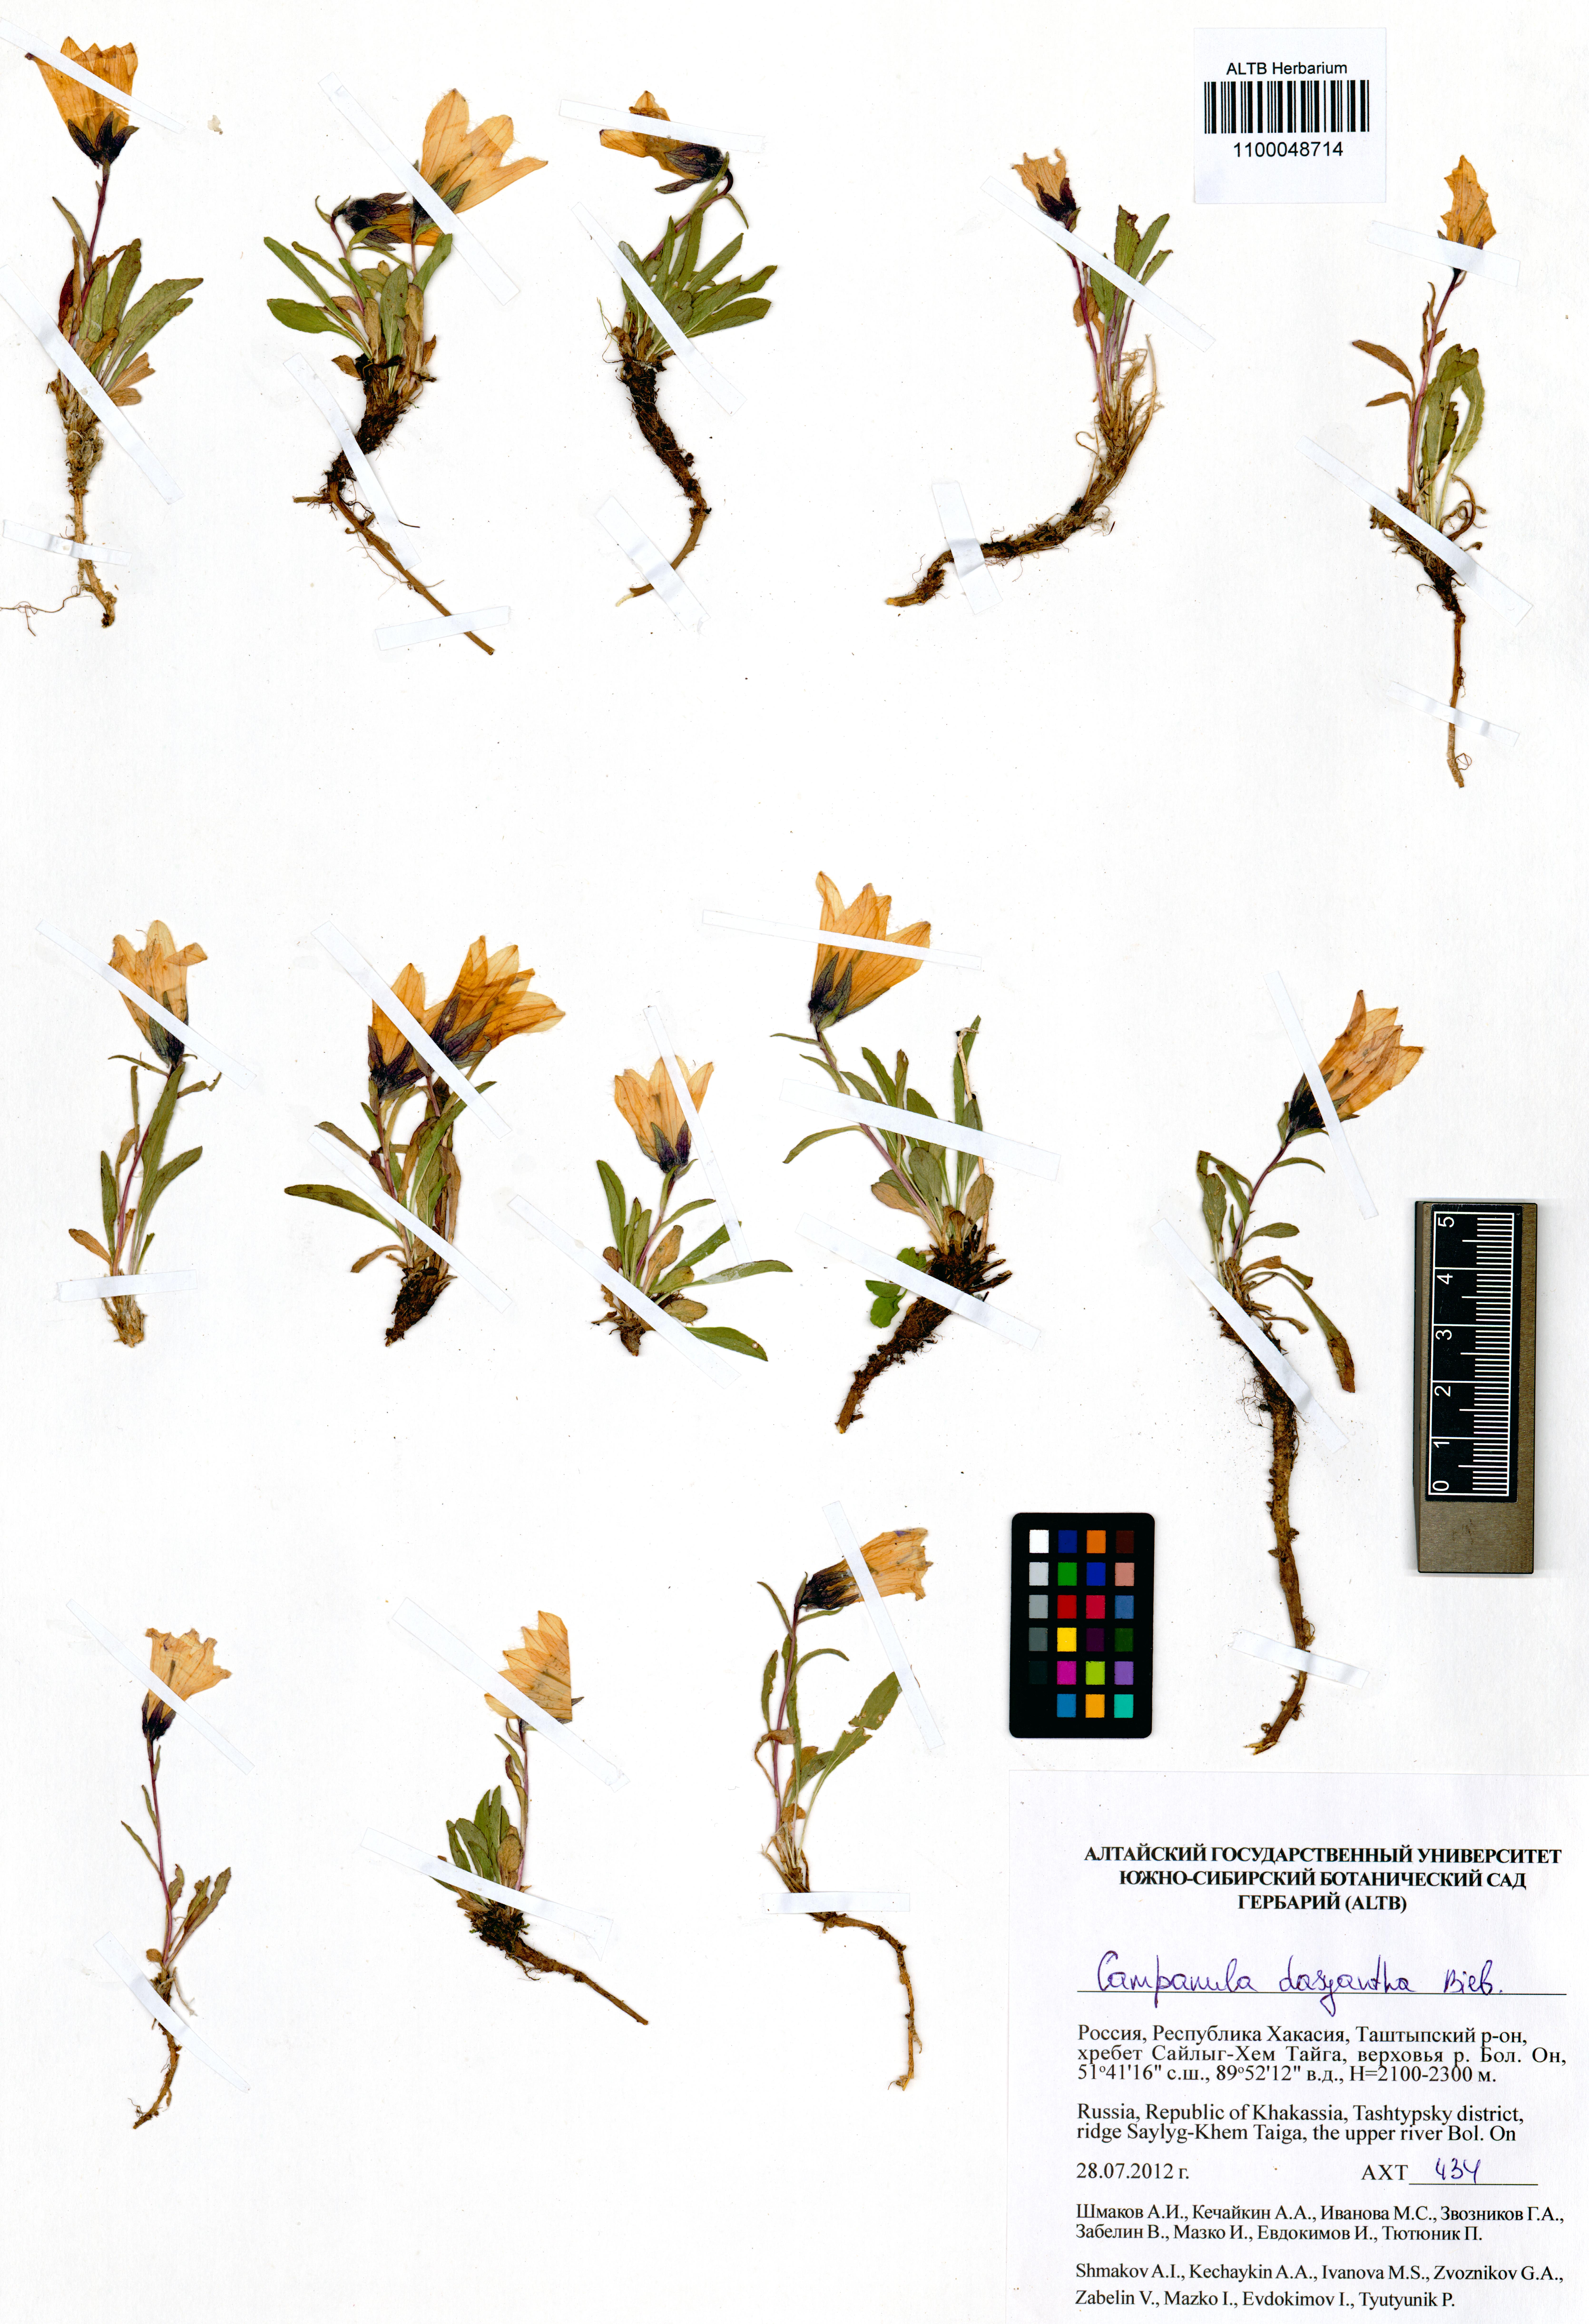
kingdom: Plantae
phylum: Tracheophyta
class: Magnoliopsida
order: Asterales
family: Campanulaceae
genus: Campanula
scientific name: Campanula dasyantha
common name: Hairyflower bellflower
